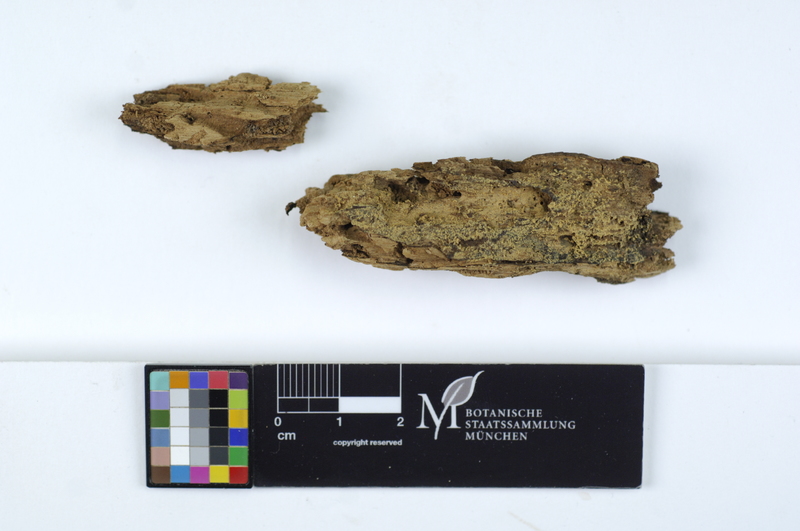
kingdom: Plantae
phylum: Tracheophyta
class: Magnoliopsida
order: Malpighiales
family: Salicaceae
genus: Populus
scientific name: Populus
